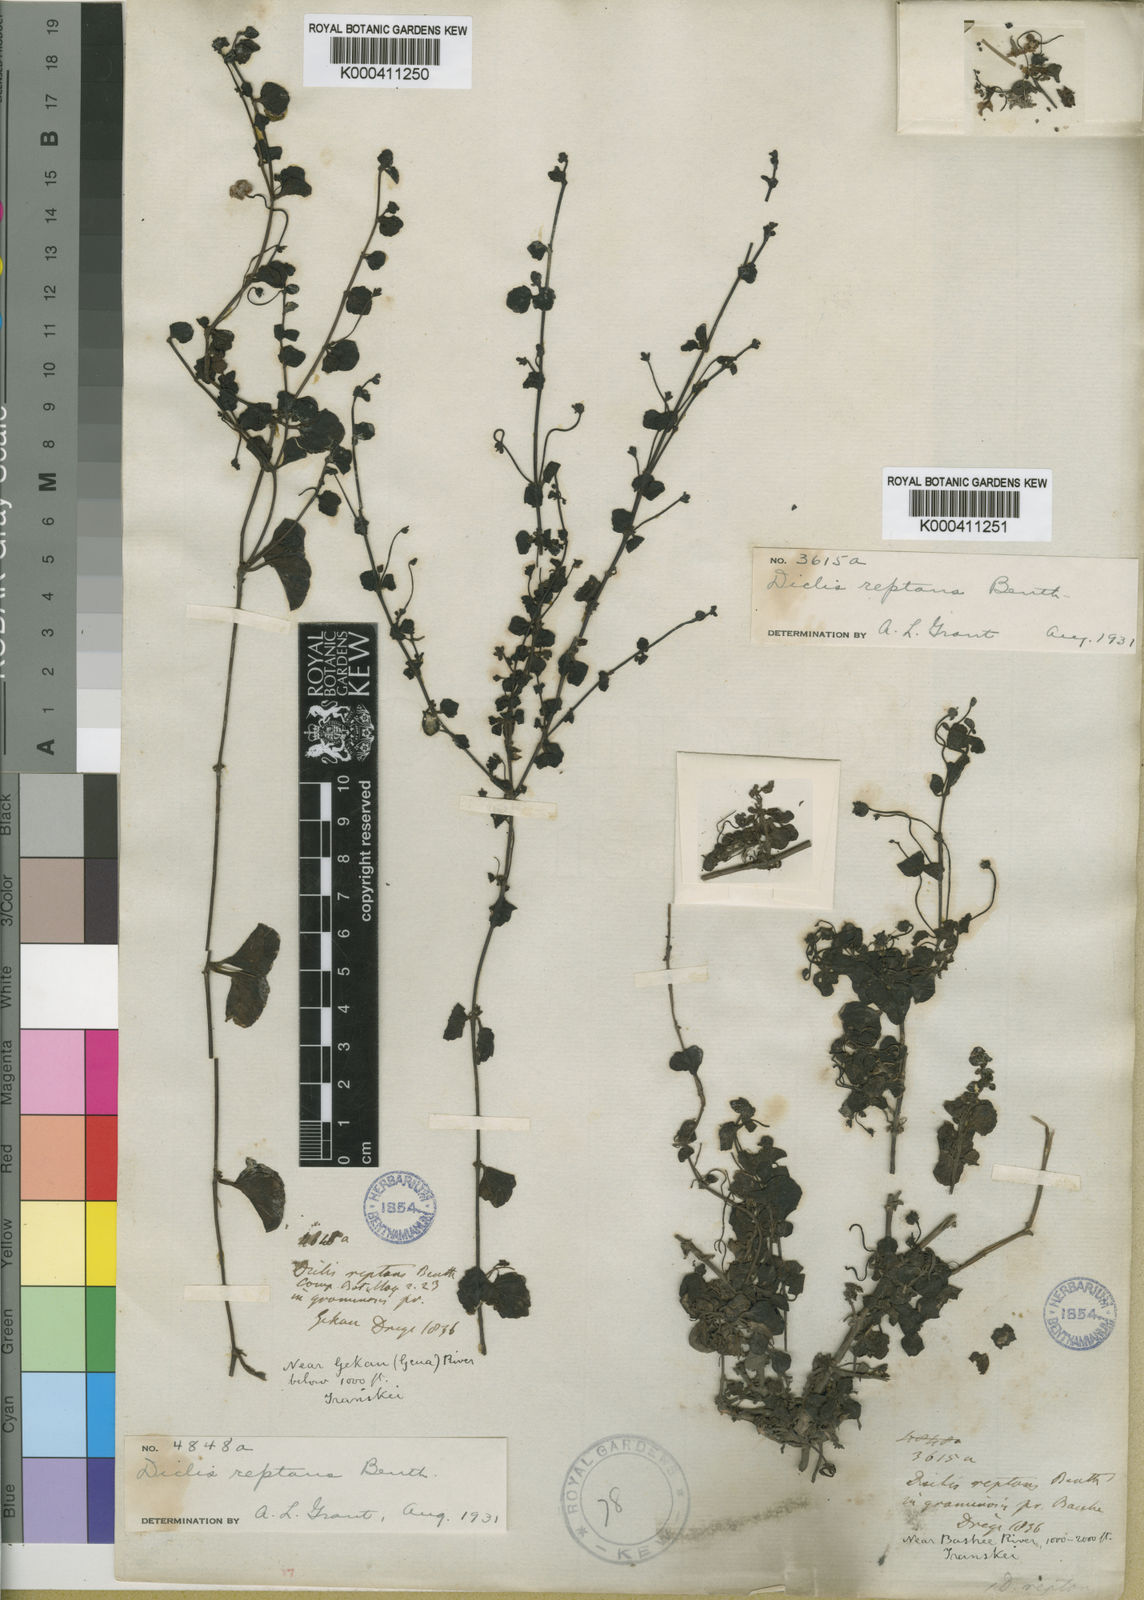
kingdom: Plantae
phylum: Tracheophyta
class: Magnoliopsida
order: Lamiales
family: Scrophulariaceae
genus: Diclis
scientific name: Diclis reptans
